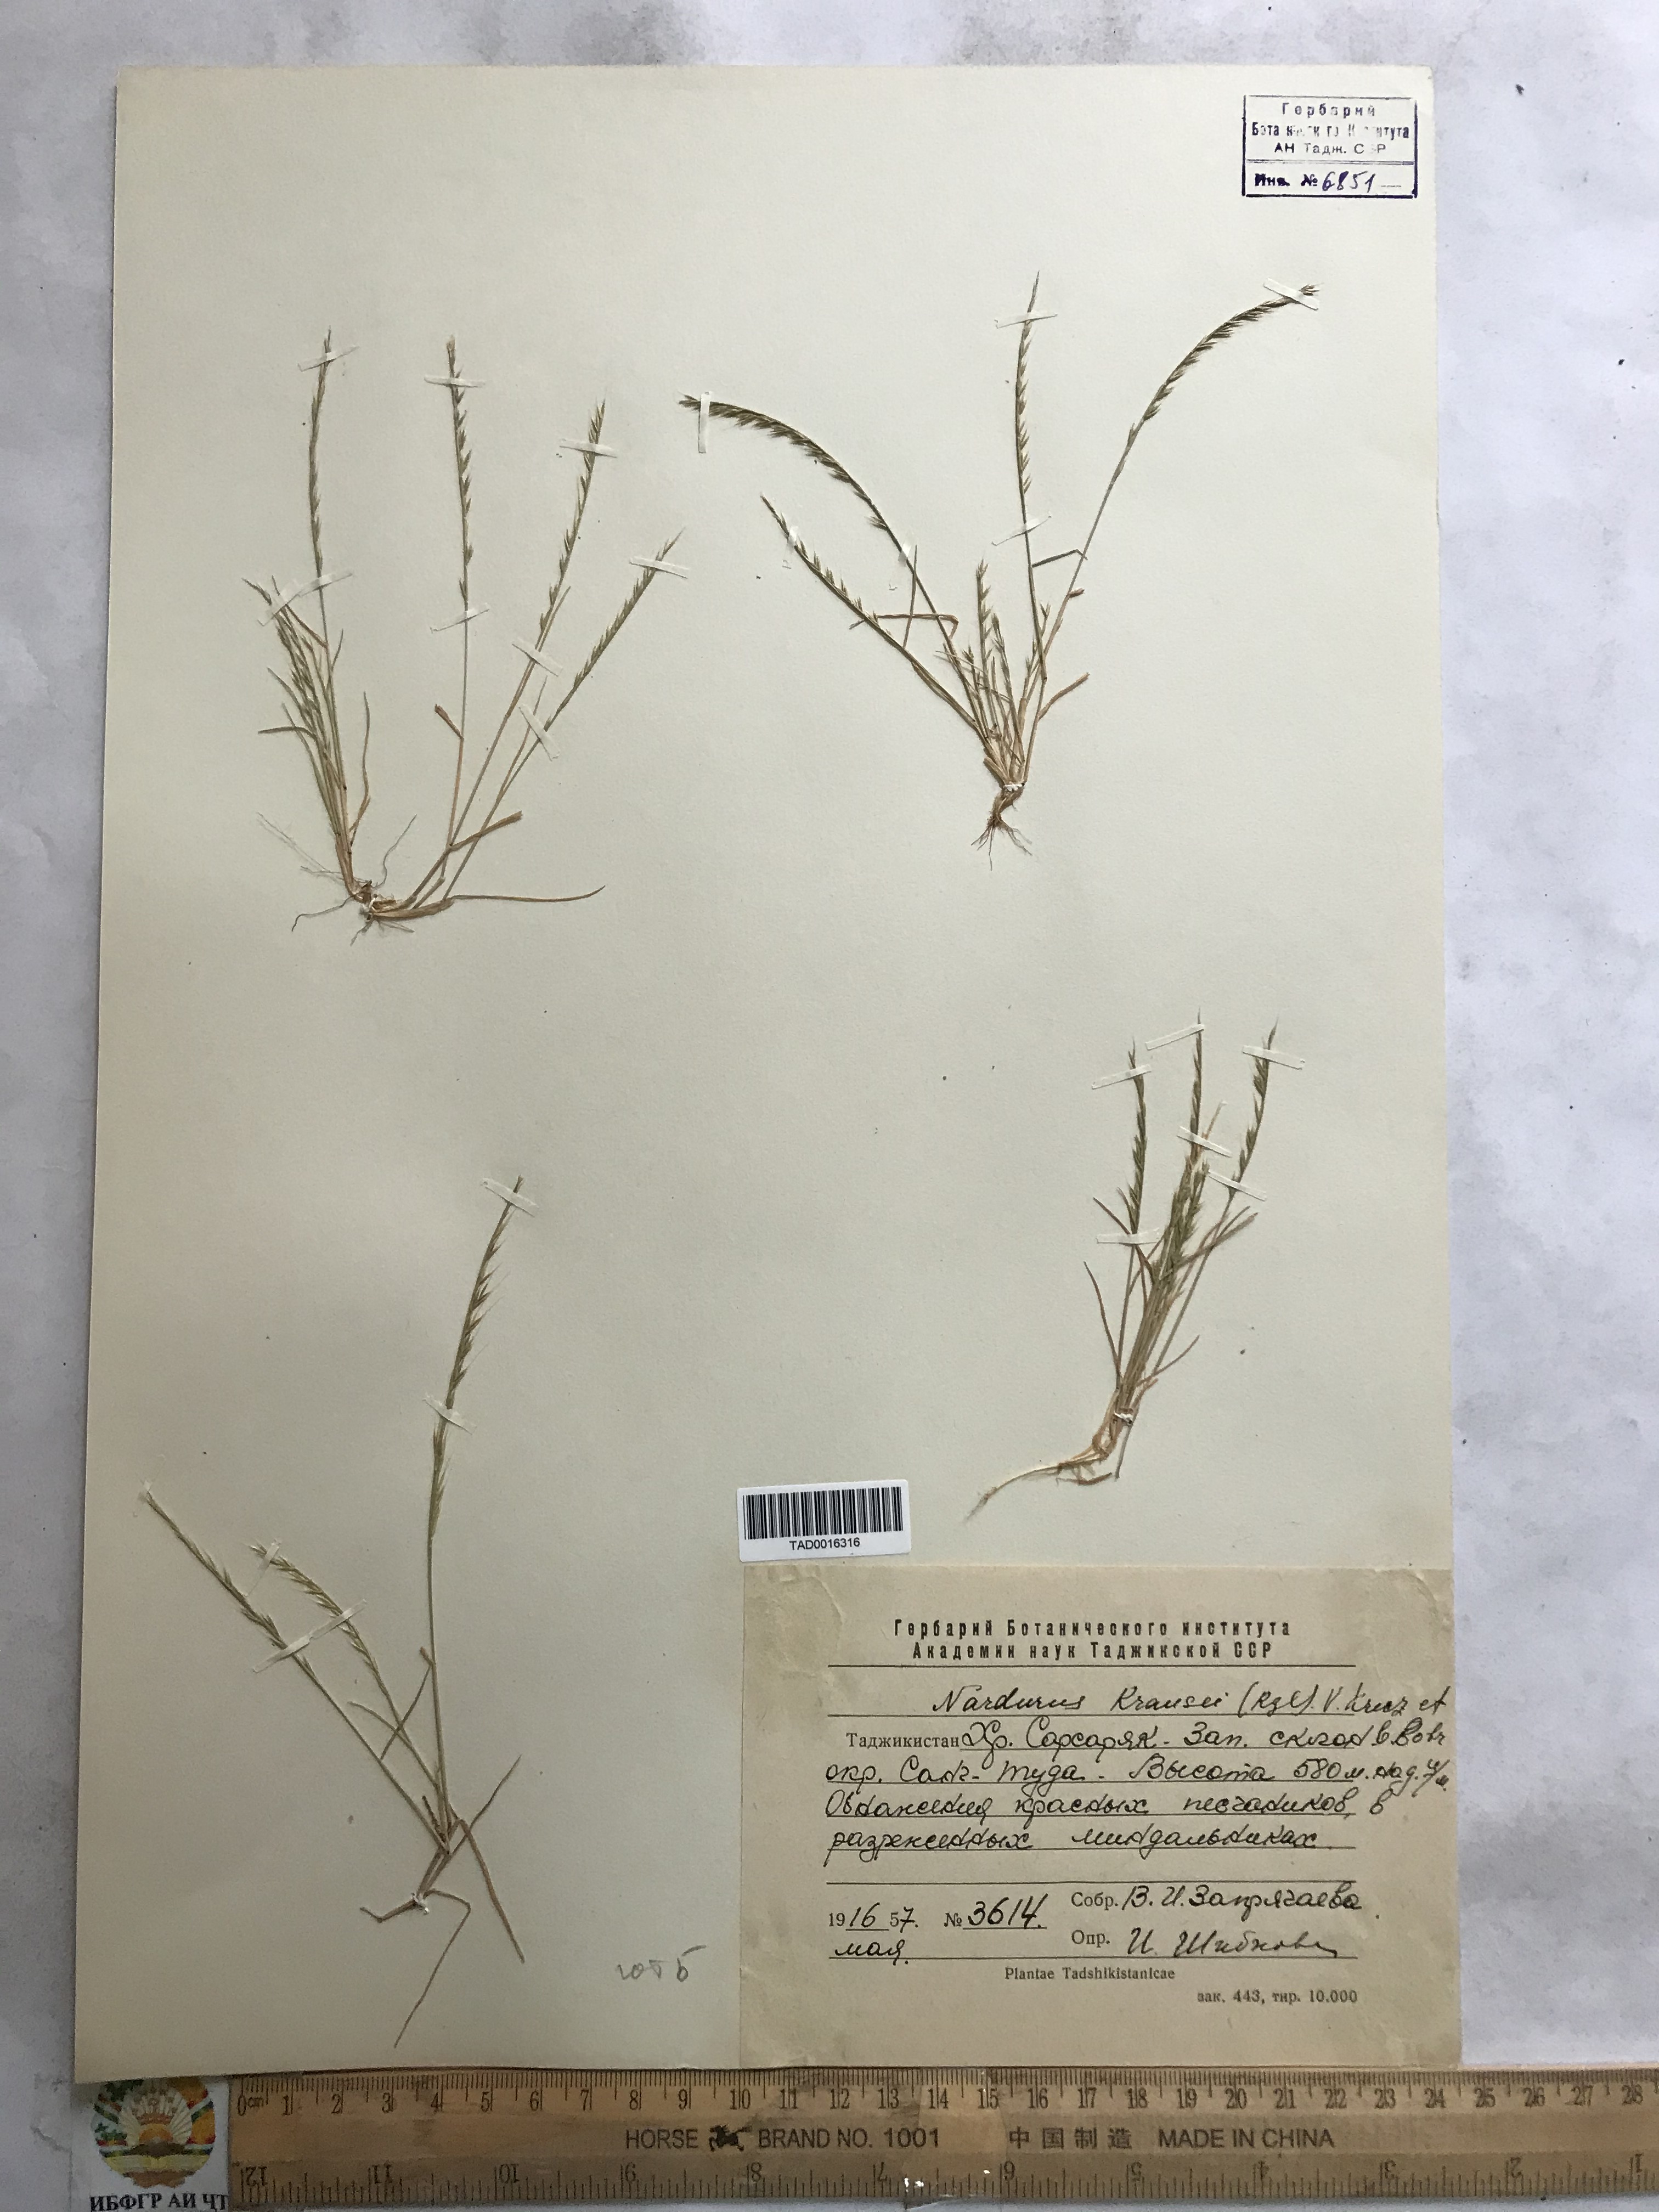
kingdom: Plantae
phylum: Tracheophyta
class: Liliopsida
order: Poales
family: Poaceae
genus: Festuca
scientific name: Festuca maritima
